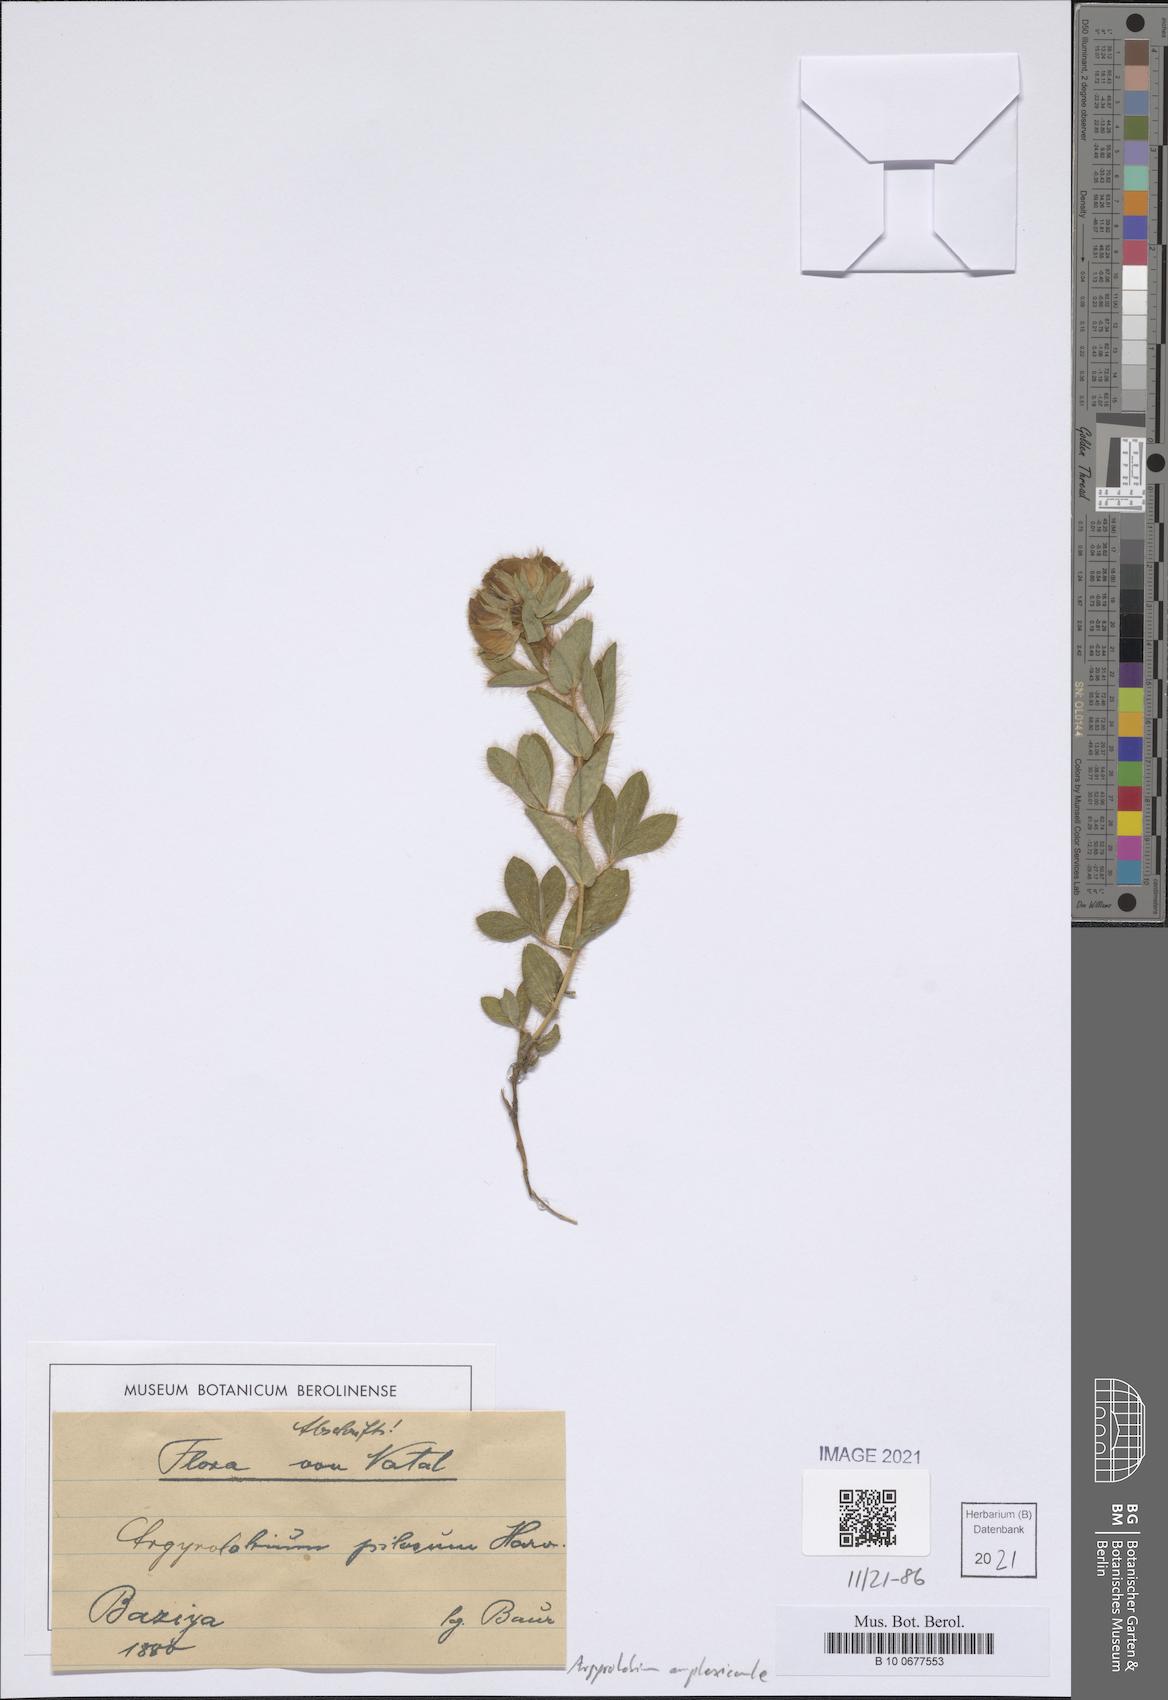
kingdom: Plantae
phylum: Tracheophyta
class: Magnoliopsida
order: Fabales
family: Fabaceae
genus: Argyrolobium
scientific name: Argyrolobium amplexicaule
